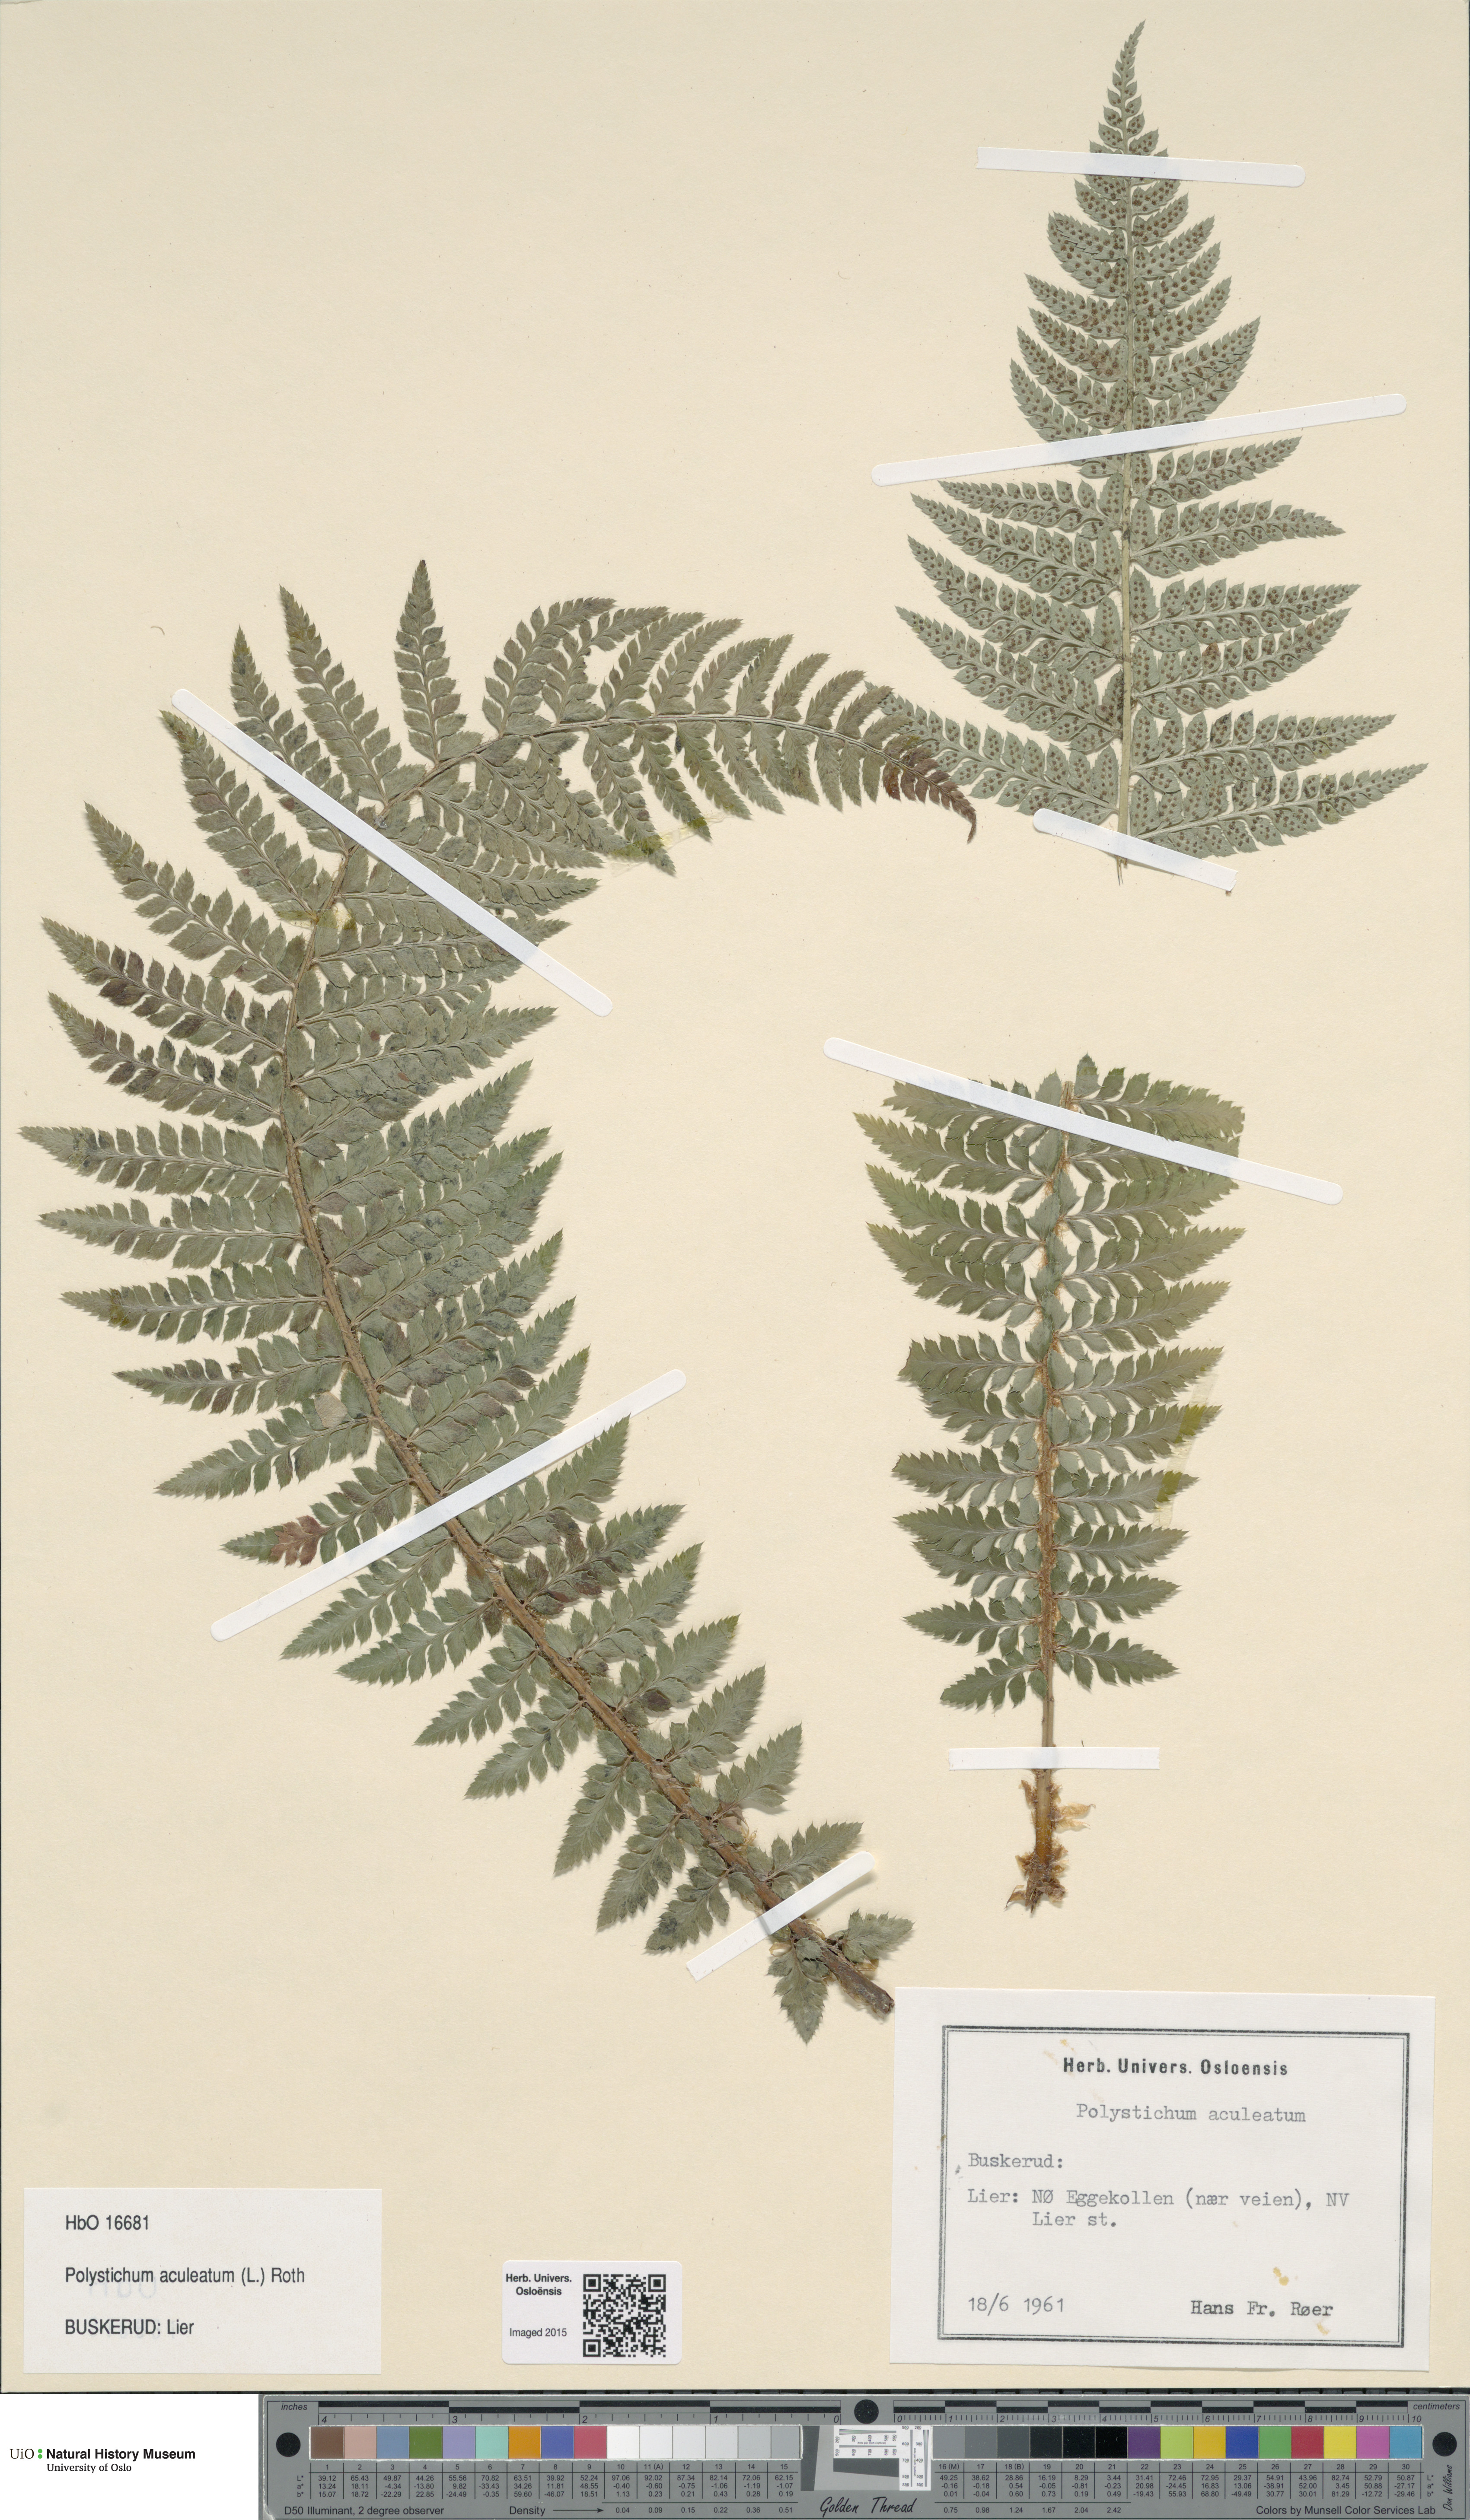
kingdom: Plantae
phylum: Tracheophyta
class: Polypodiopsida
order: Polypodiales
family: Dryopteridaceae
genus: Polystichum
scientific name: Polystichum aculeatum
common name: Hard shield-fern
